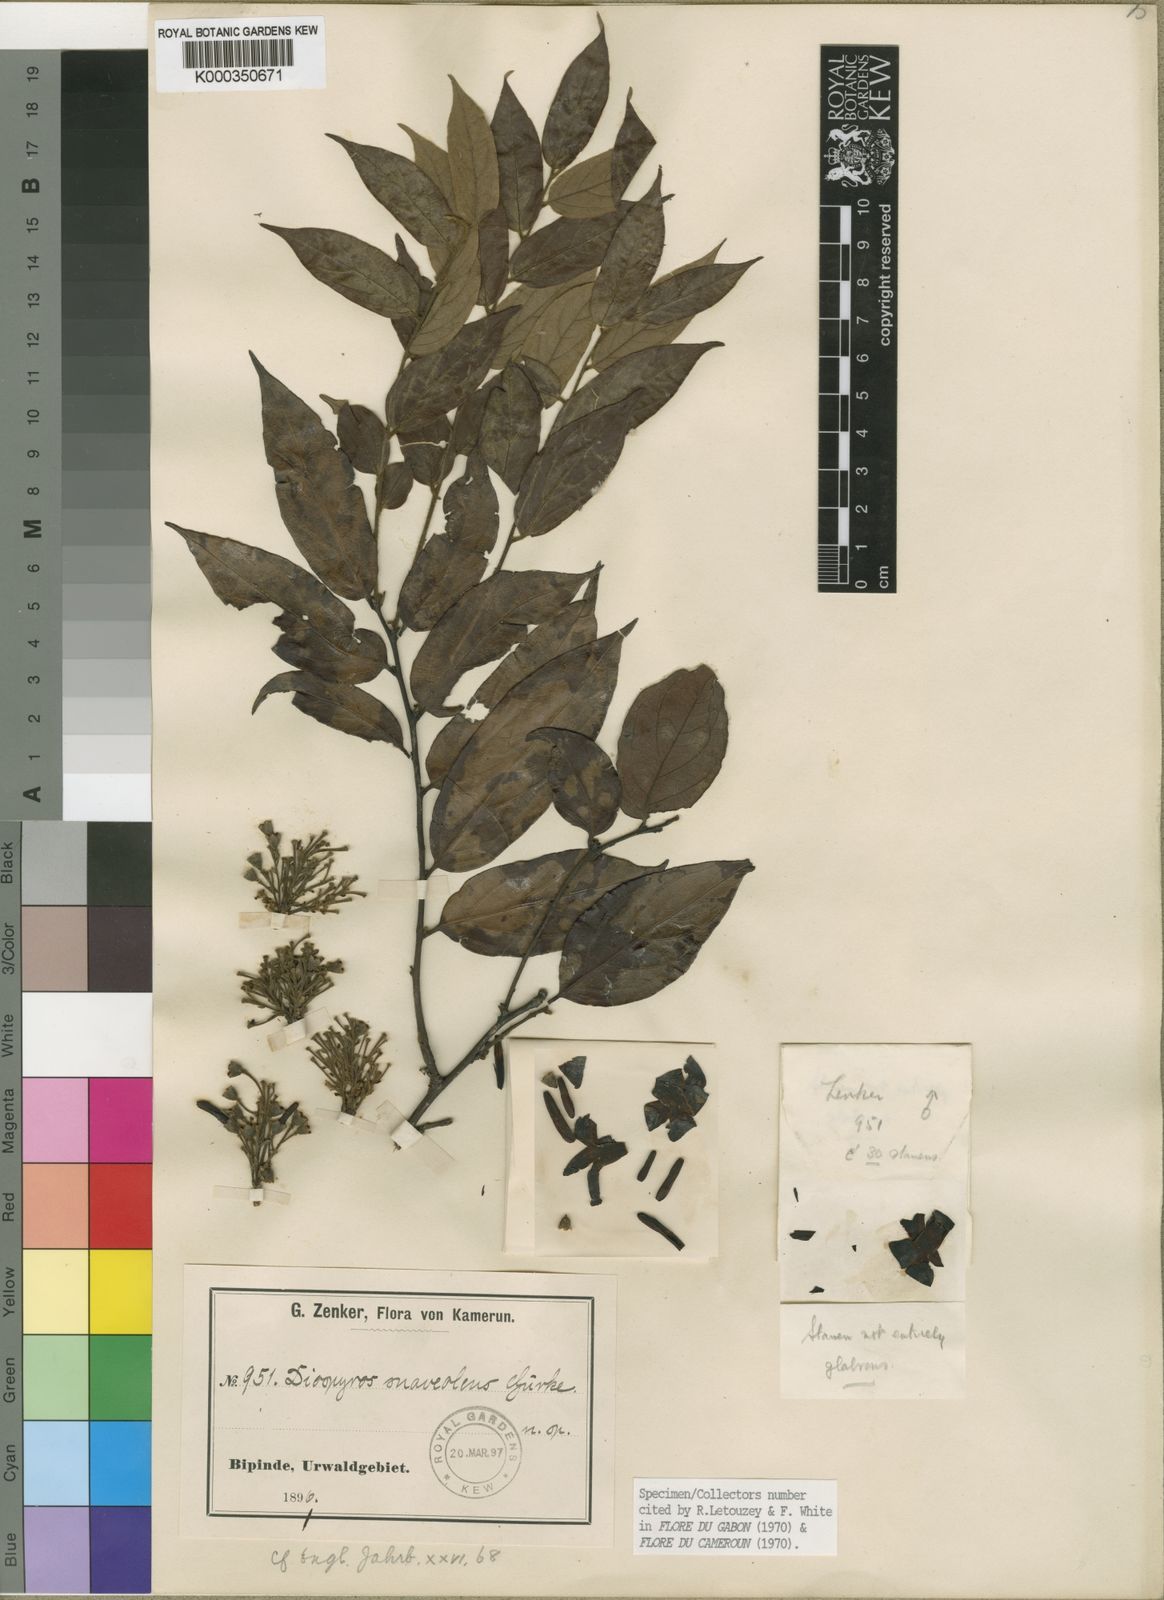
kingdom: Plantae
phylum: Tracheophyta
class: Magnoliopsida
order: Ericales
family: Ebenaceae
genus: Diospyros
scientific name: Diospyros
